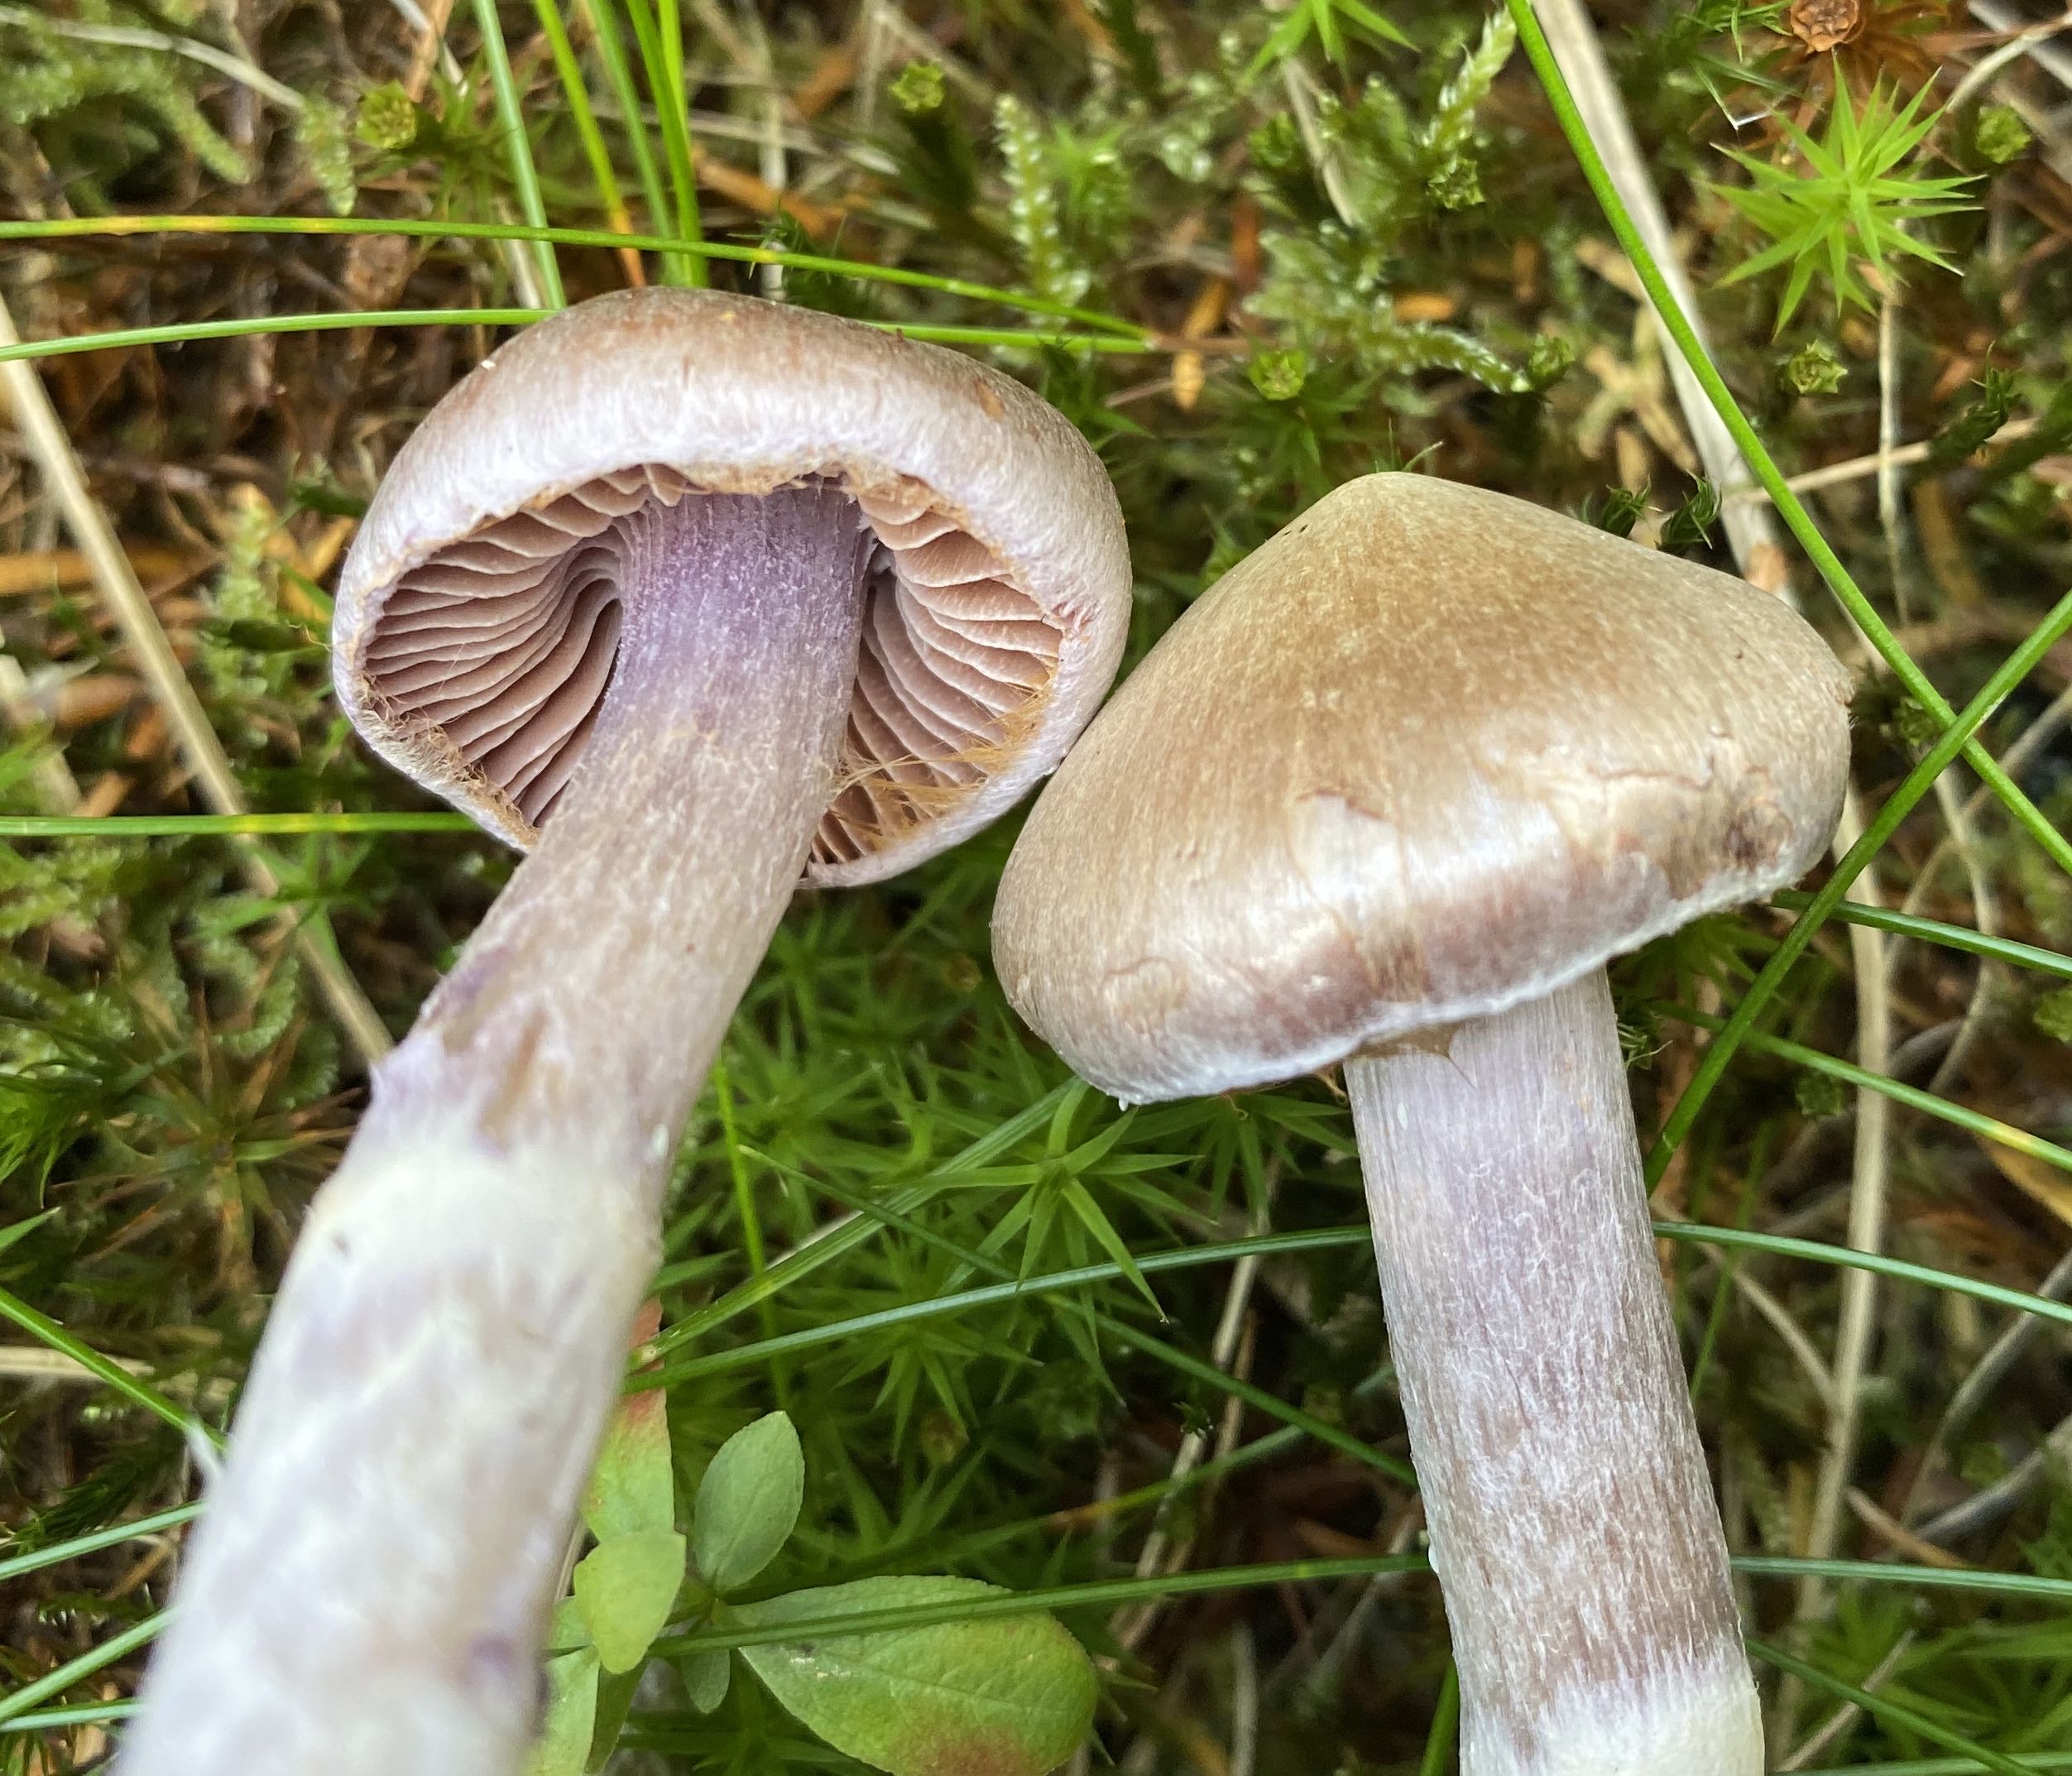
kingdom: Fungi
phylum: Basidiomycota
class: Agaricomycetes
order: Agaricales
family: Cortinariaceae
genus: Cortinarius
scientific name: Cortinarius
